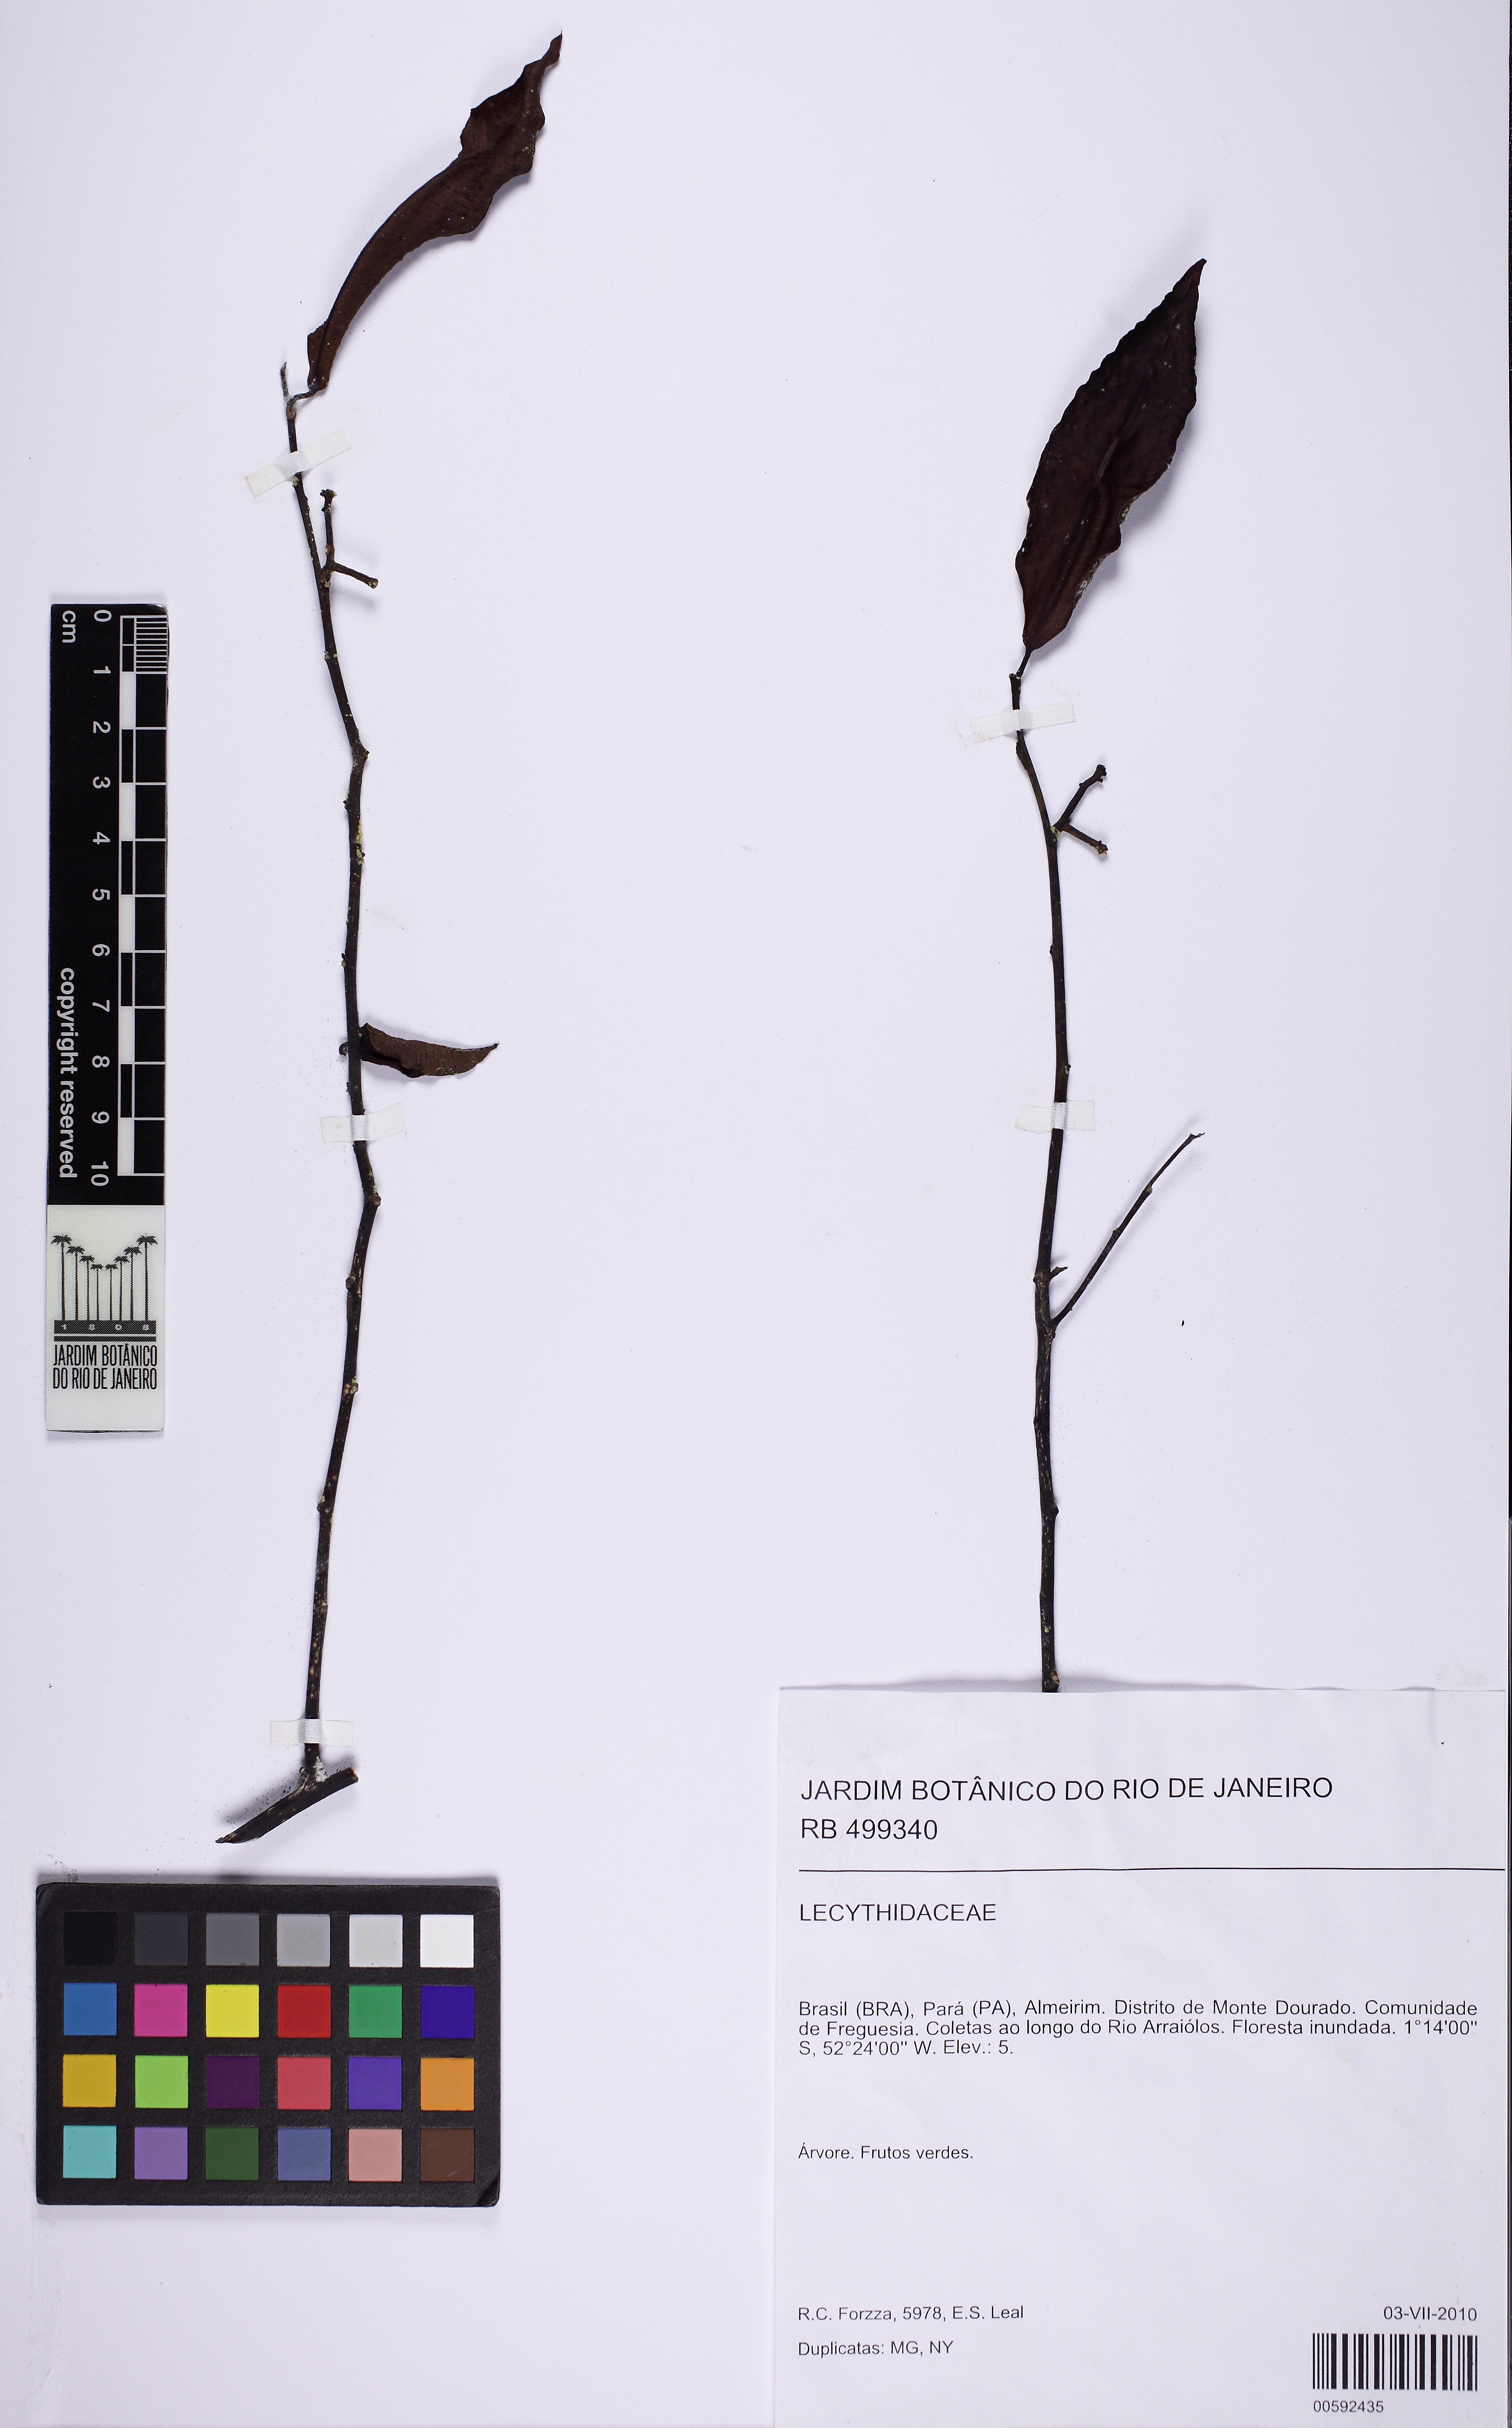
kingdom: Plantae
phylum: Tracheophyta
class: Magnoliopsida
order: Santalales
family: Olacaceae
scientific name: Olacaceae
